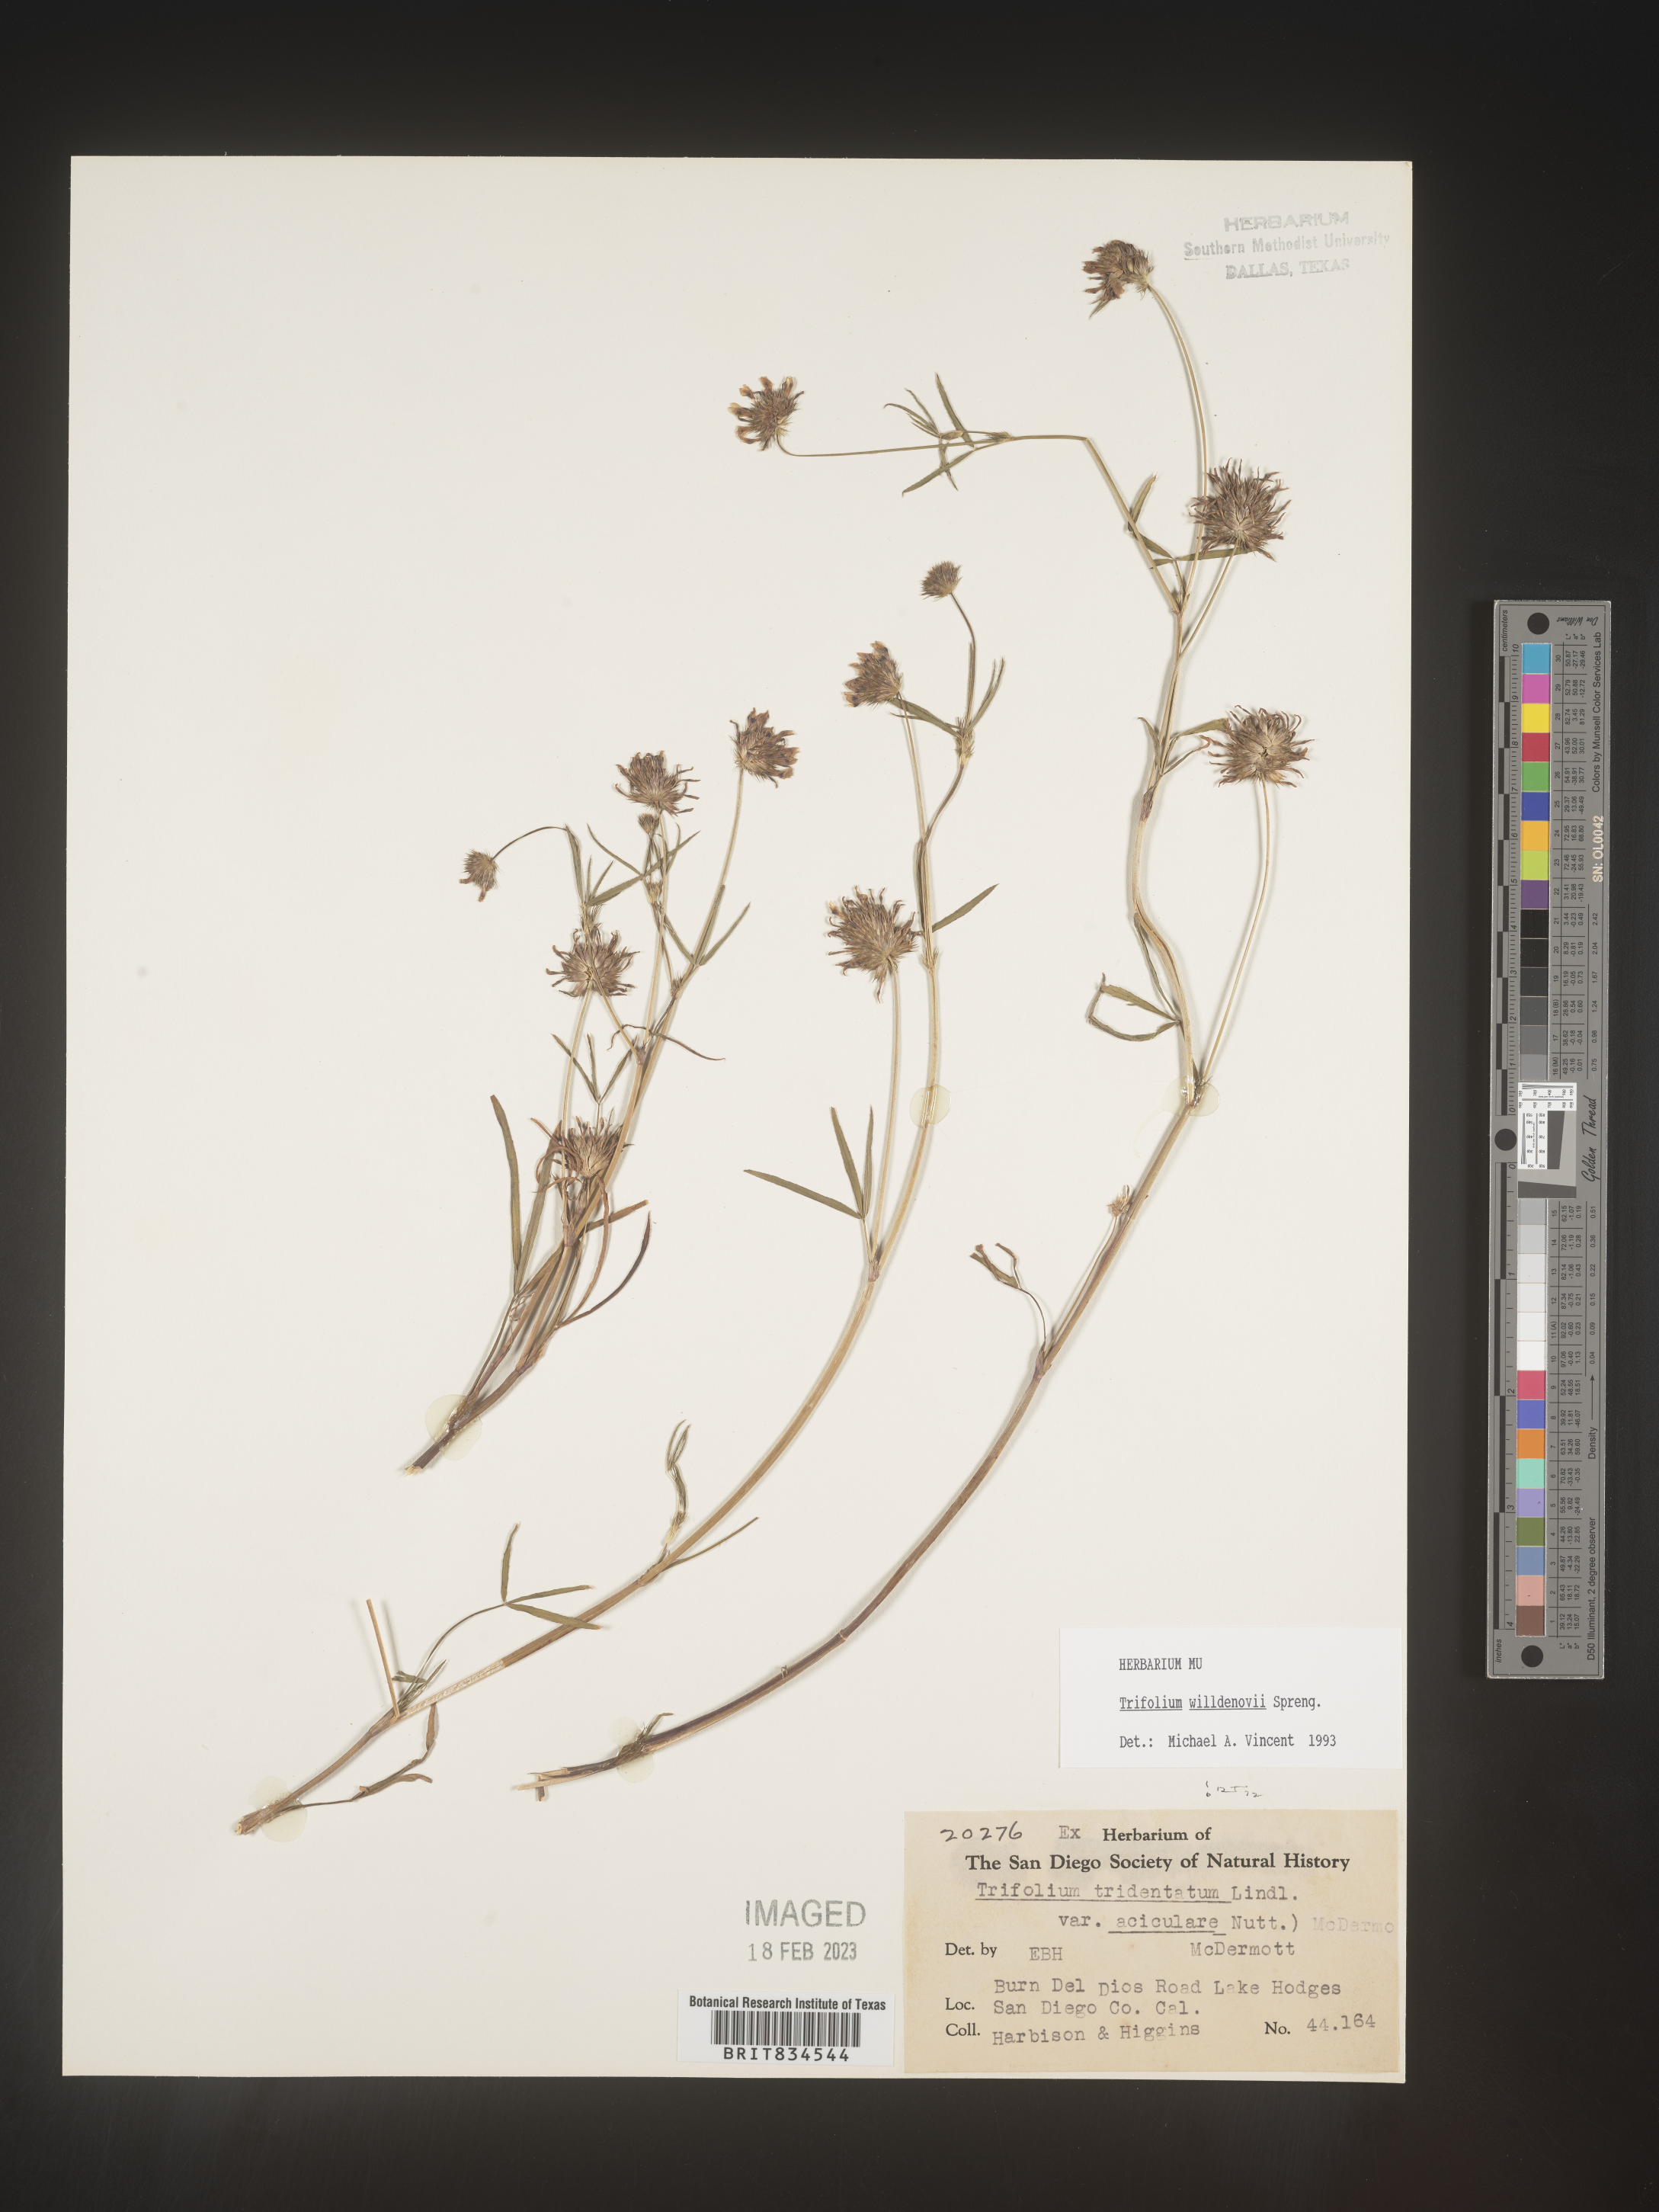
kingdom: Plantae
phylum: Tracheophyta
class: Magnoliopsida
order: Fabales
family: Fabaceae
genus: Trifolium
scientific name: Trifolium
